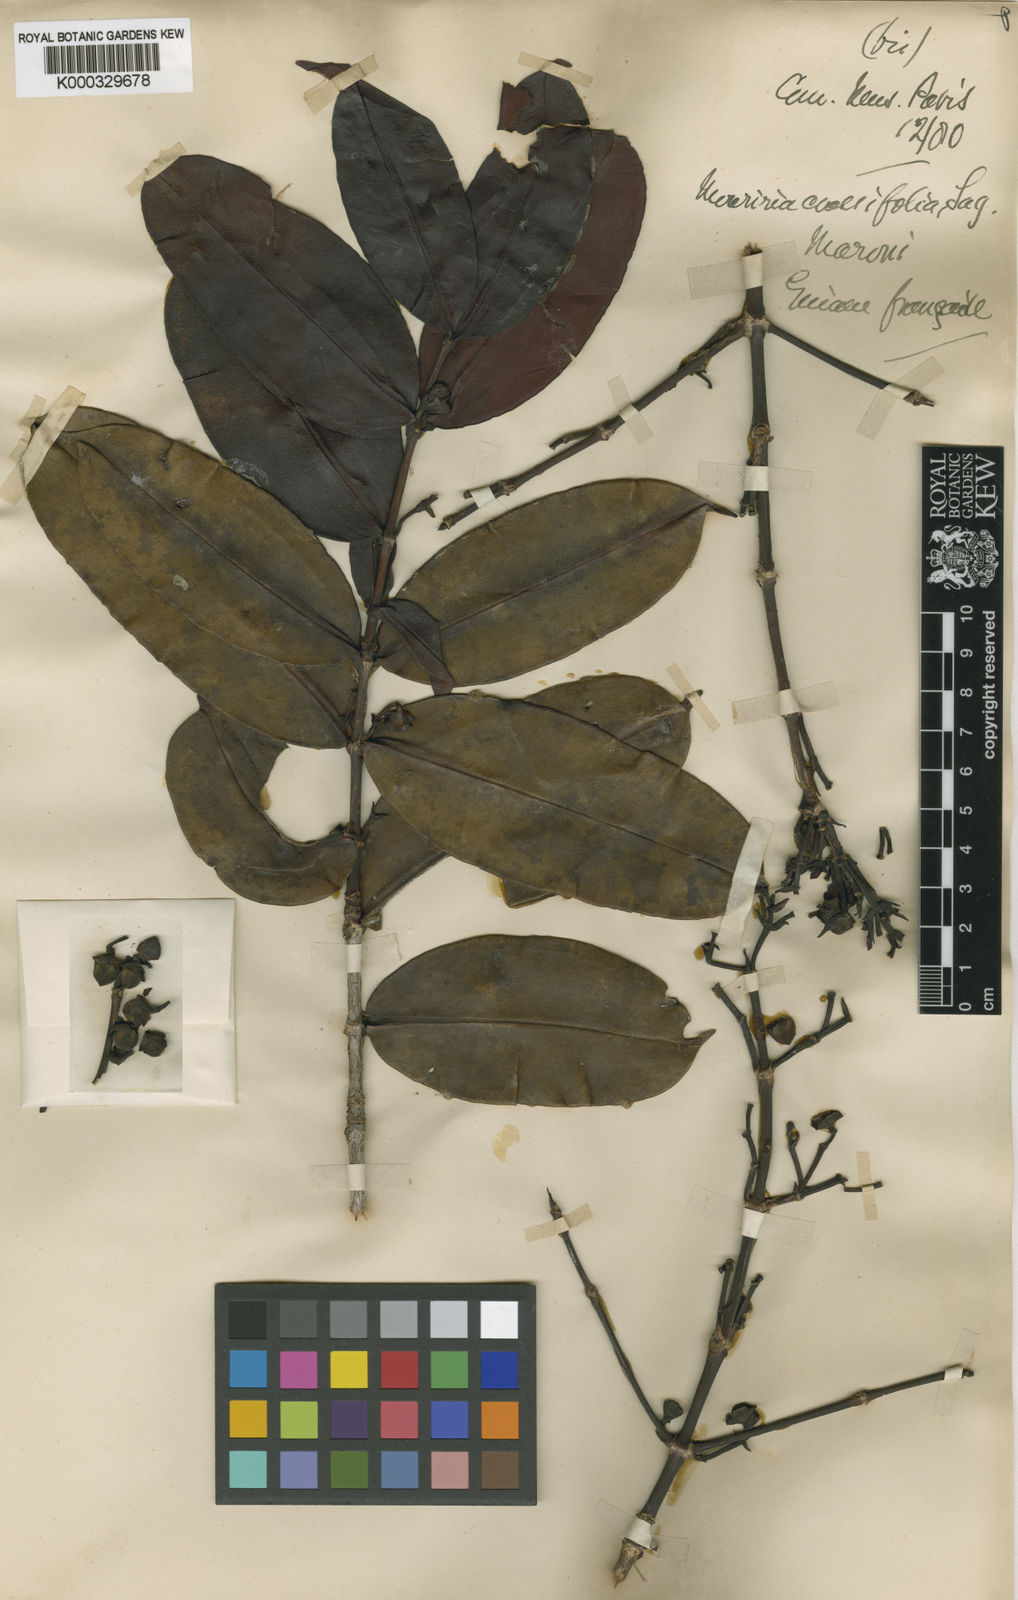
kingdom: Plantae
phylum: Tracheophyta
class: Magnoliopsida
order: Myrtales
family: Melastomataceae
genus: Mouriri
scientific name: Mouriri crassifolia
